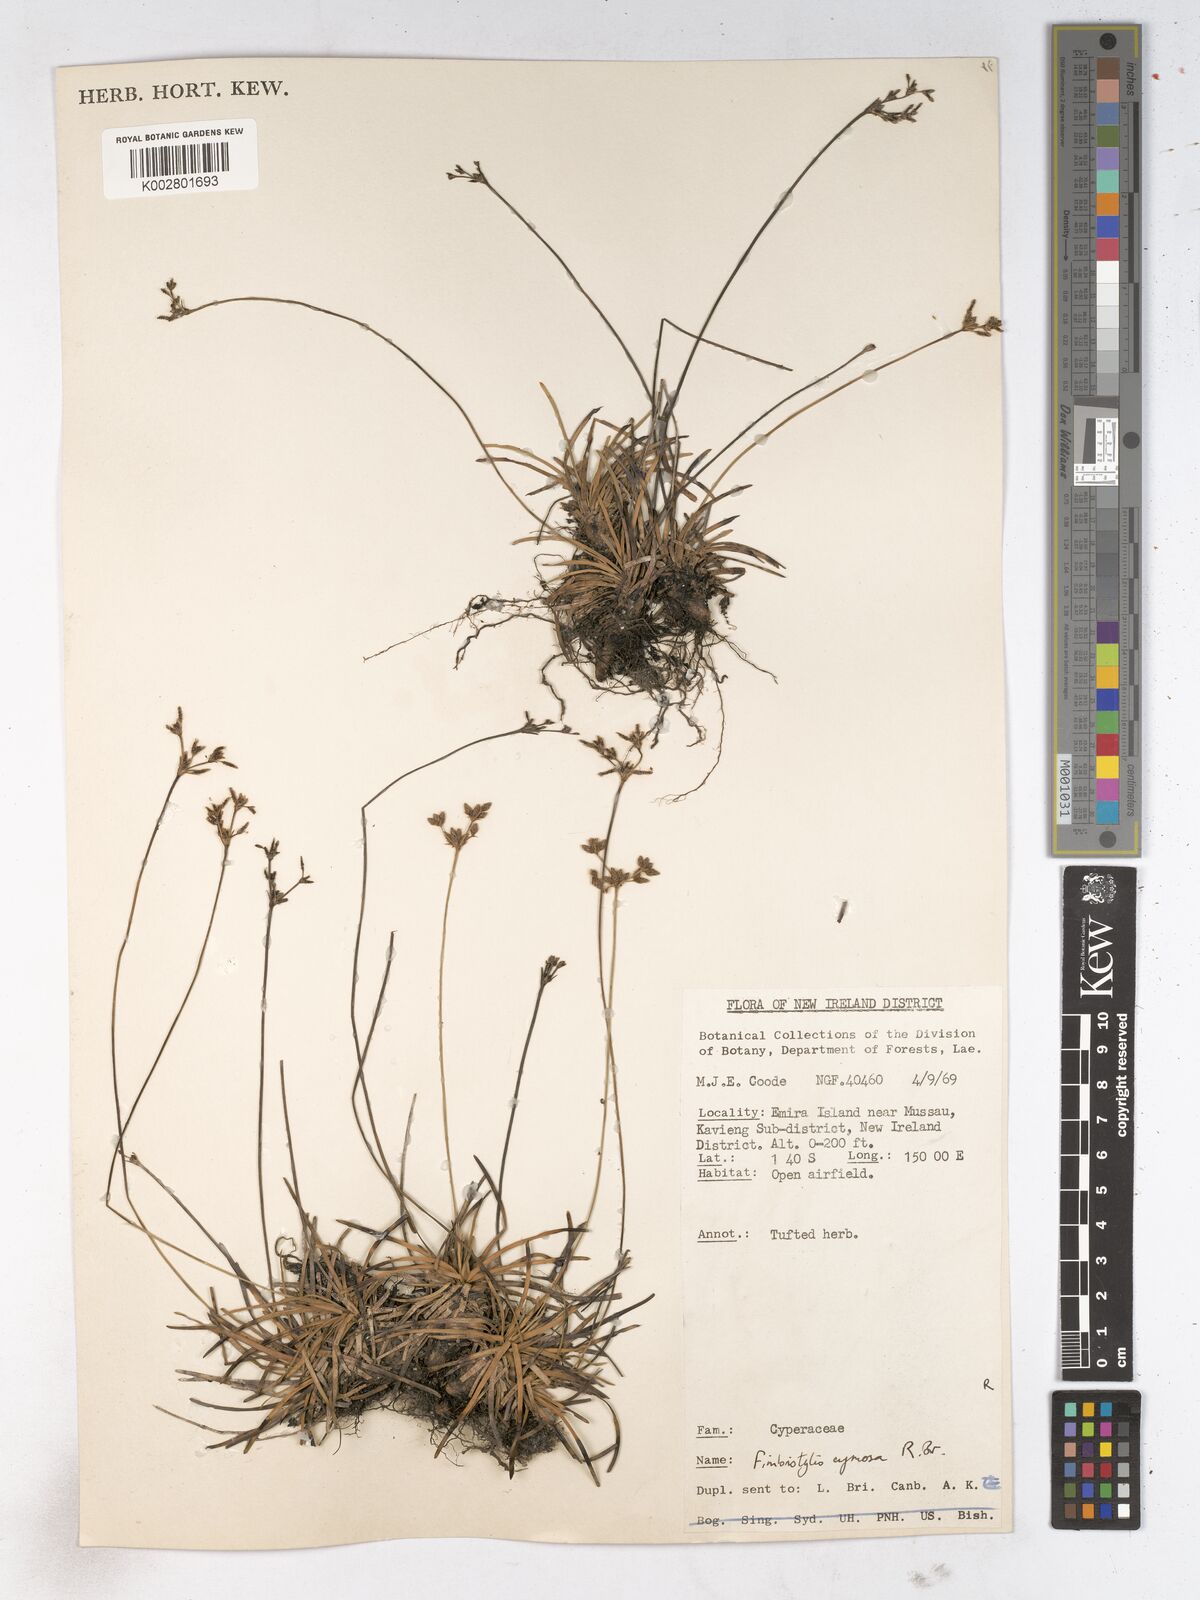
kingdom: Plantae
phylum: Tracheophyta
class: Liliopsida
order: Poales
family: Cyperaceae
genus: Fimbristylis
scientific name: Fimbristylis cymosa
